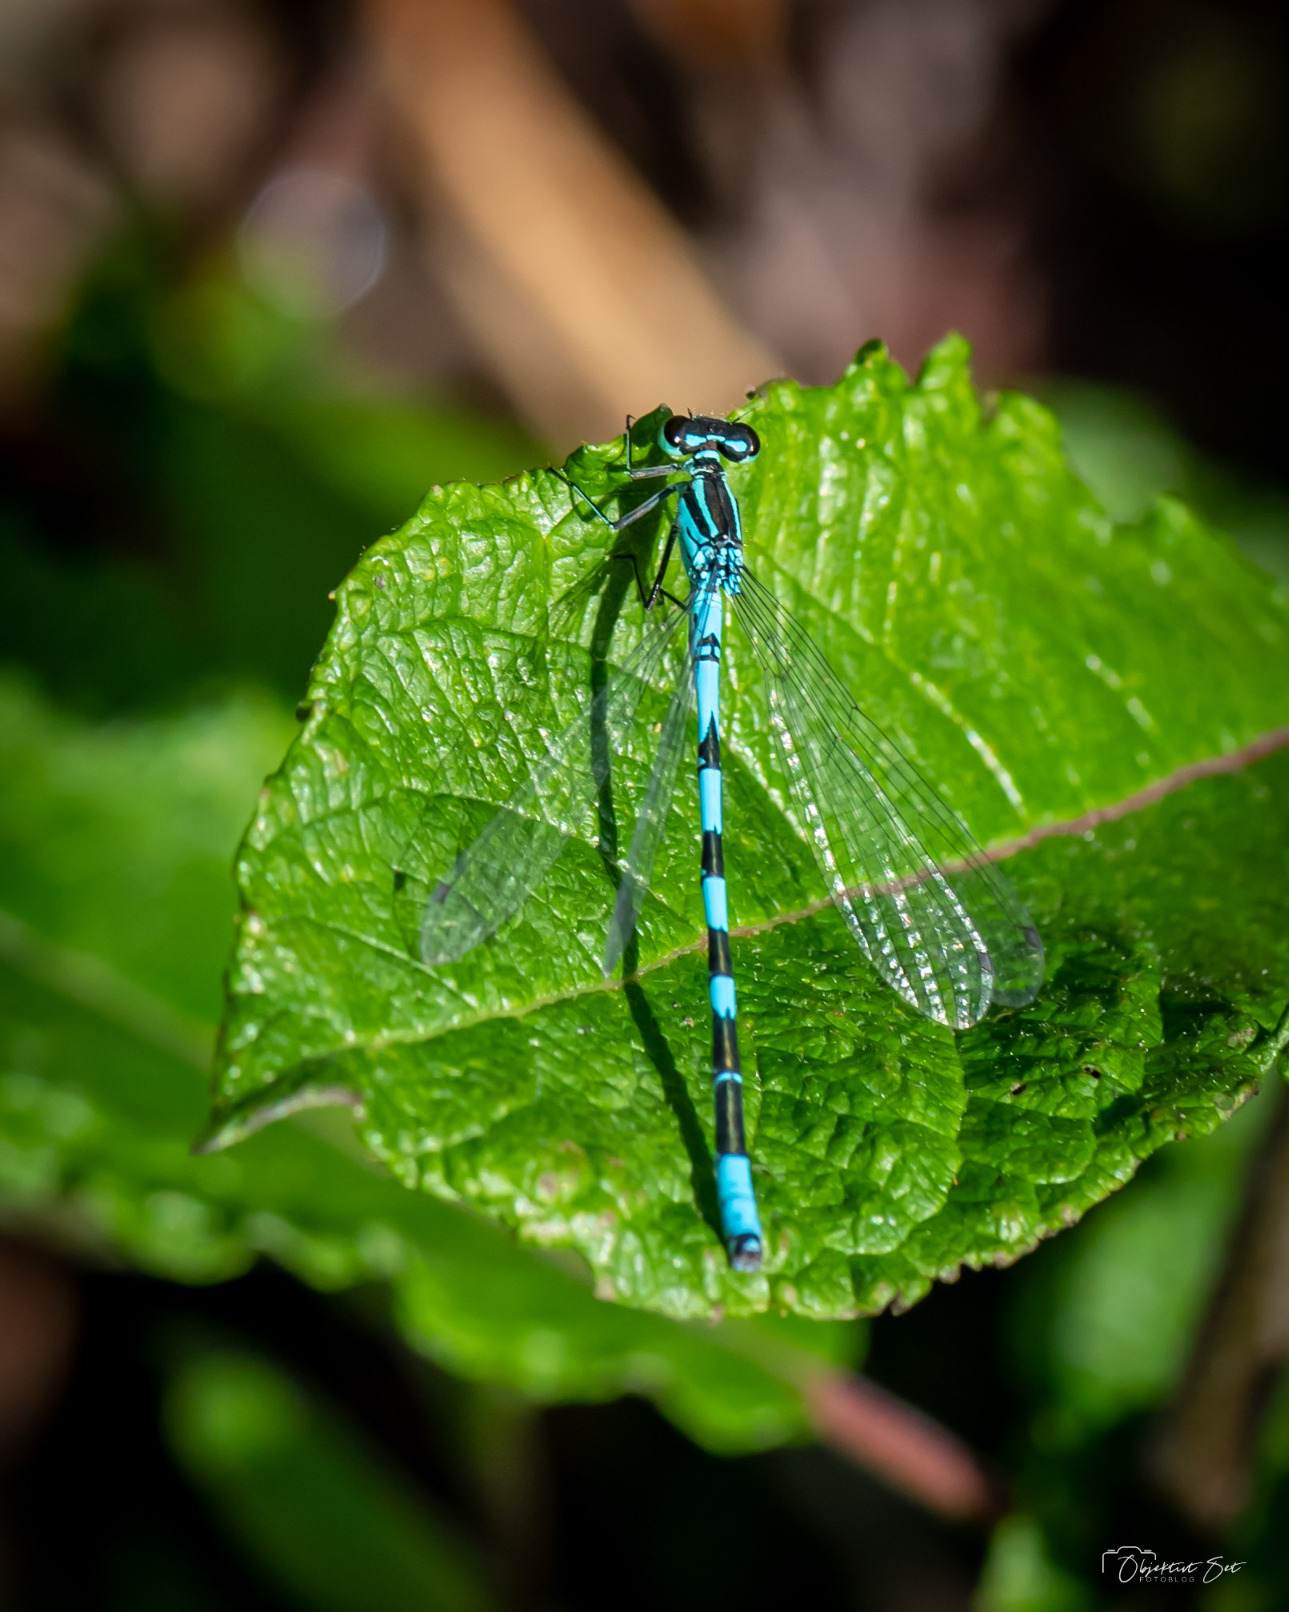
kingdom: Animalia
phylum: Arthropoda
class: Insecta
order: Odonata
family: Coenagrionidae
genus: Coenagrion
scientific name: Coenagrion hastulatum
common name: Spyd-vandnymfe
